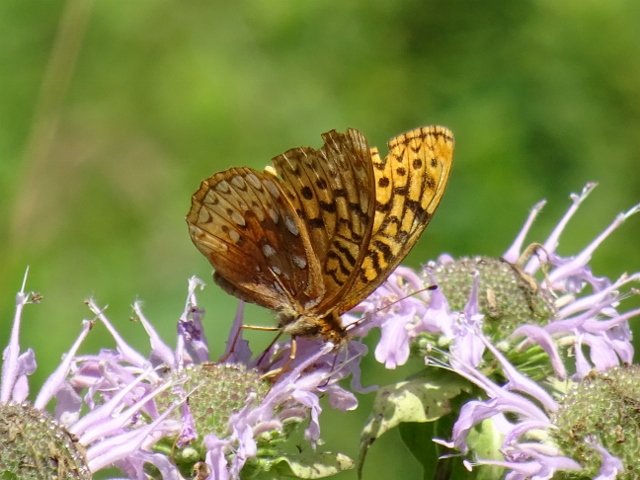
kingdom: Animalia
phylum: Arthropoda
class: Insecta
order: Lepidoptera
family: Nymphalidae
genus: Speyeria
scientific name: Speyeria cybele
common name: Great Spangled Fritillary
